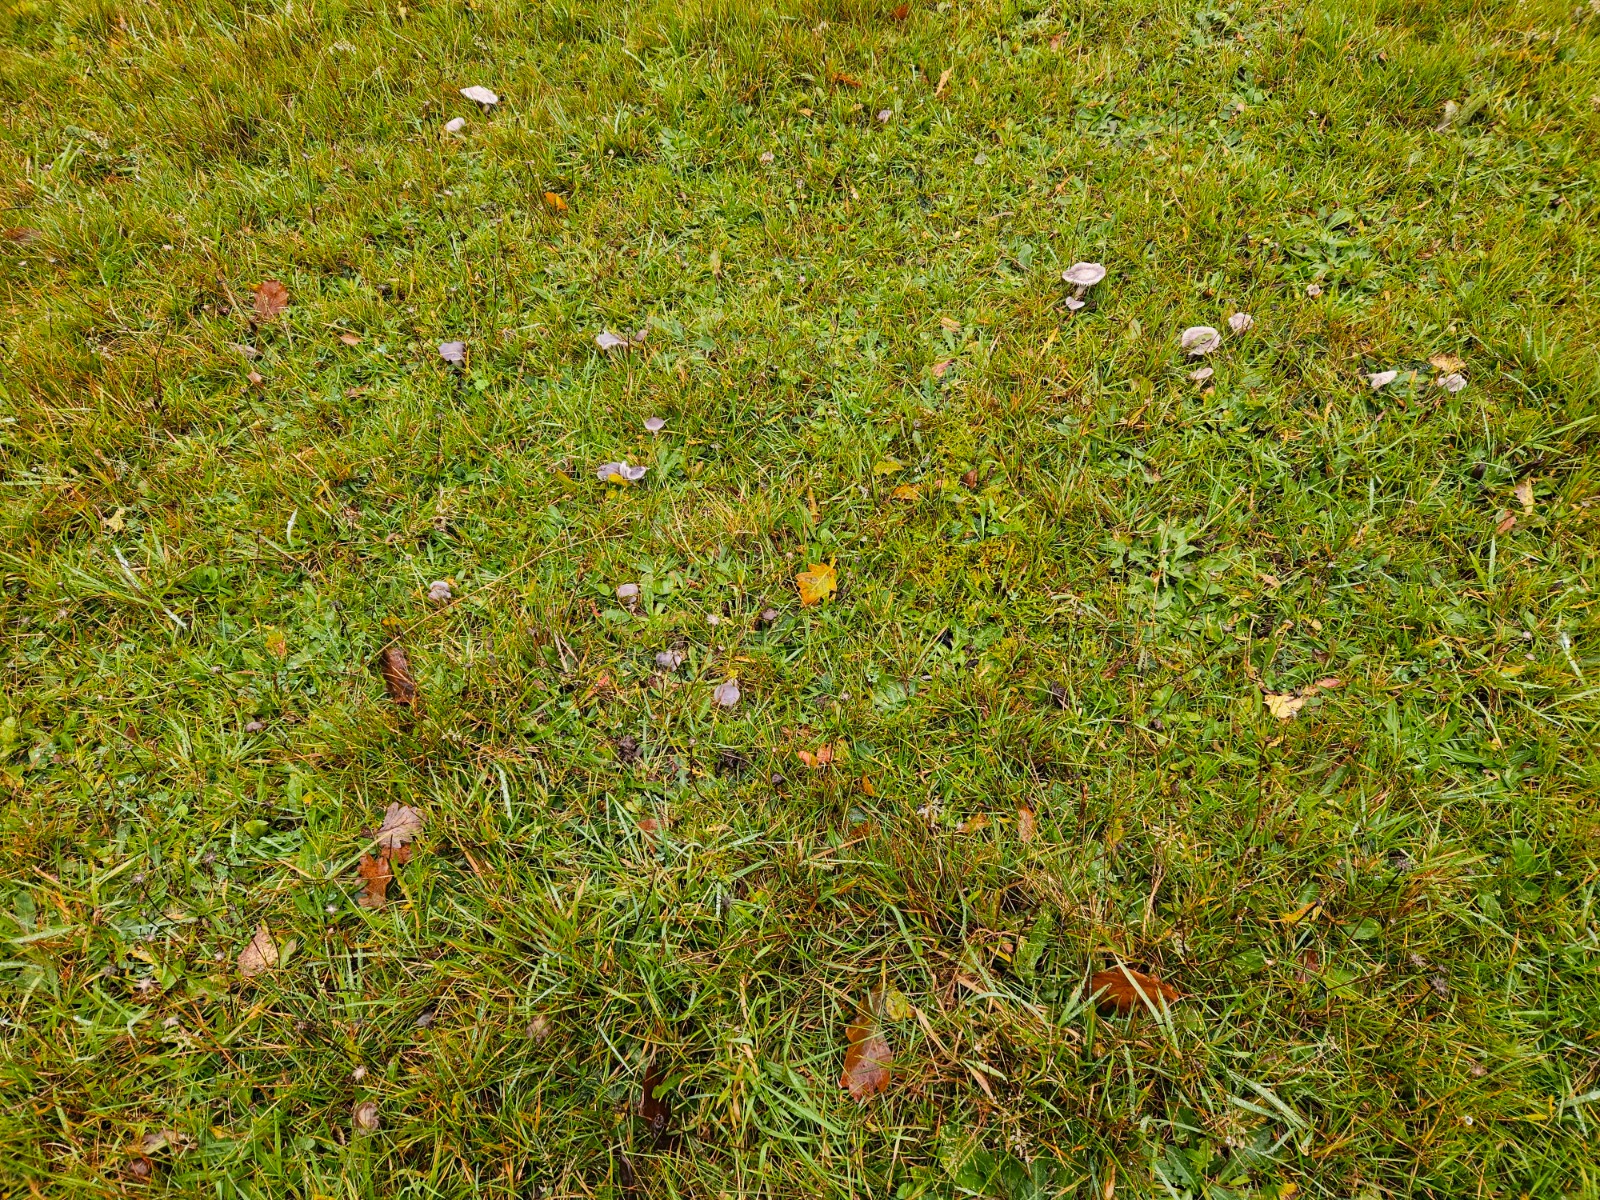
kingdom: Fungi
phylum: Basidiomycota
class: Agaricomycetes
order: Agaricales
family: Hygrophoraceae
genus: Cuphophyllus
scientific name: Cuphophyllus lacmus
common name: gråviolet vokshat
